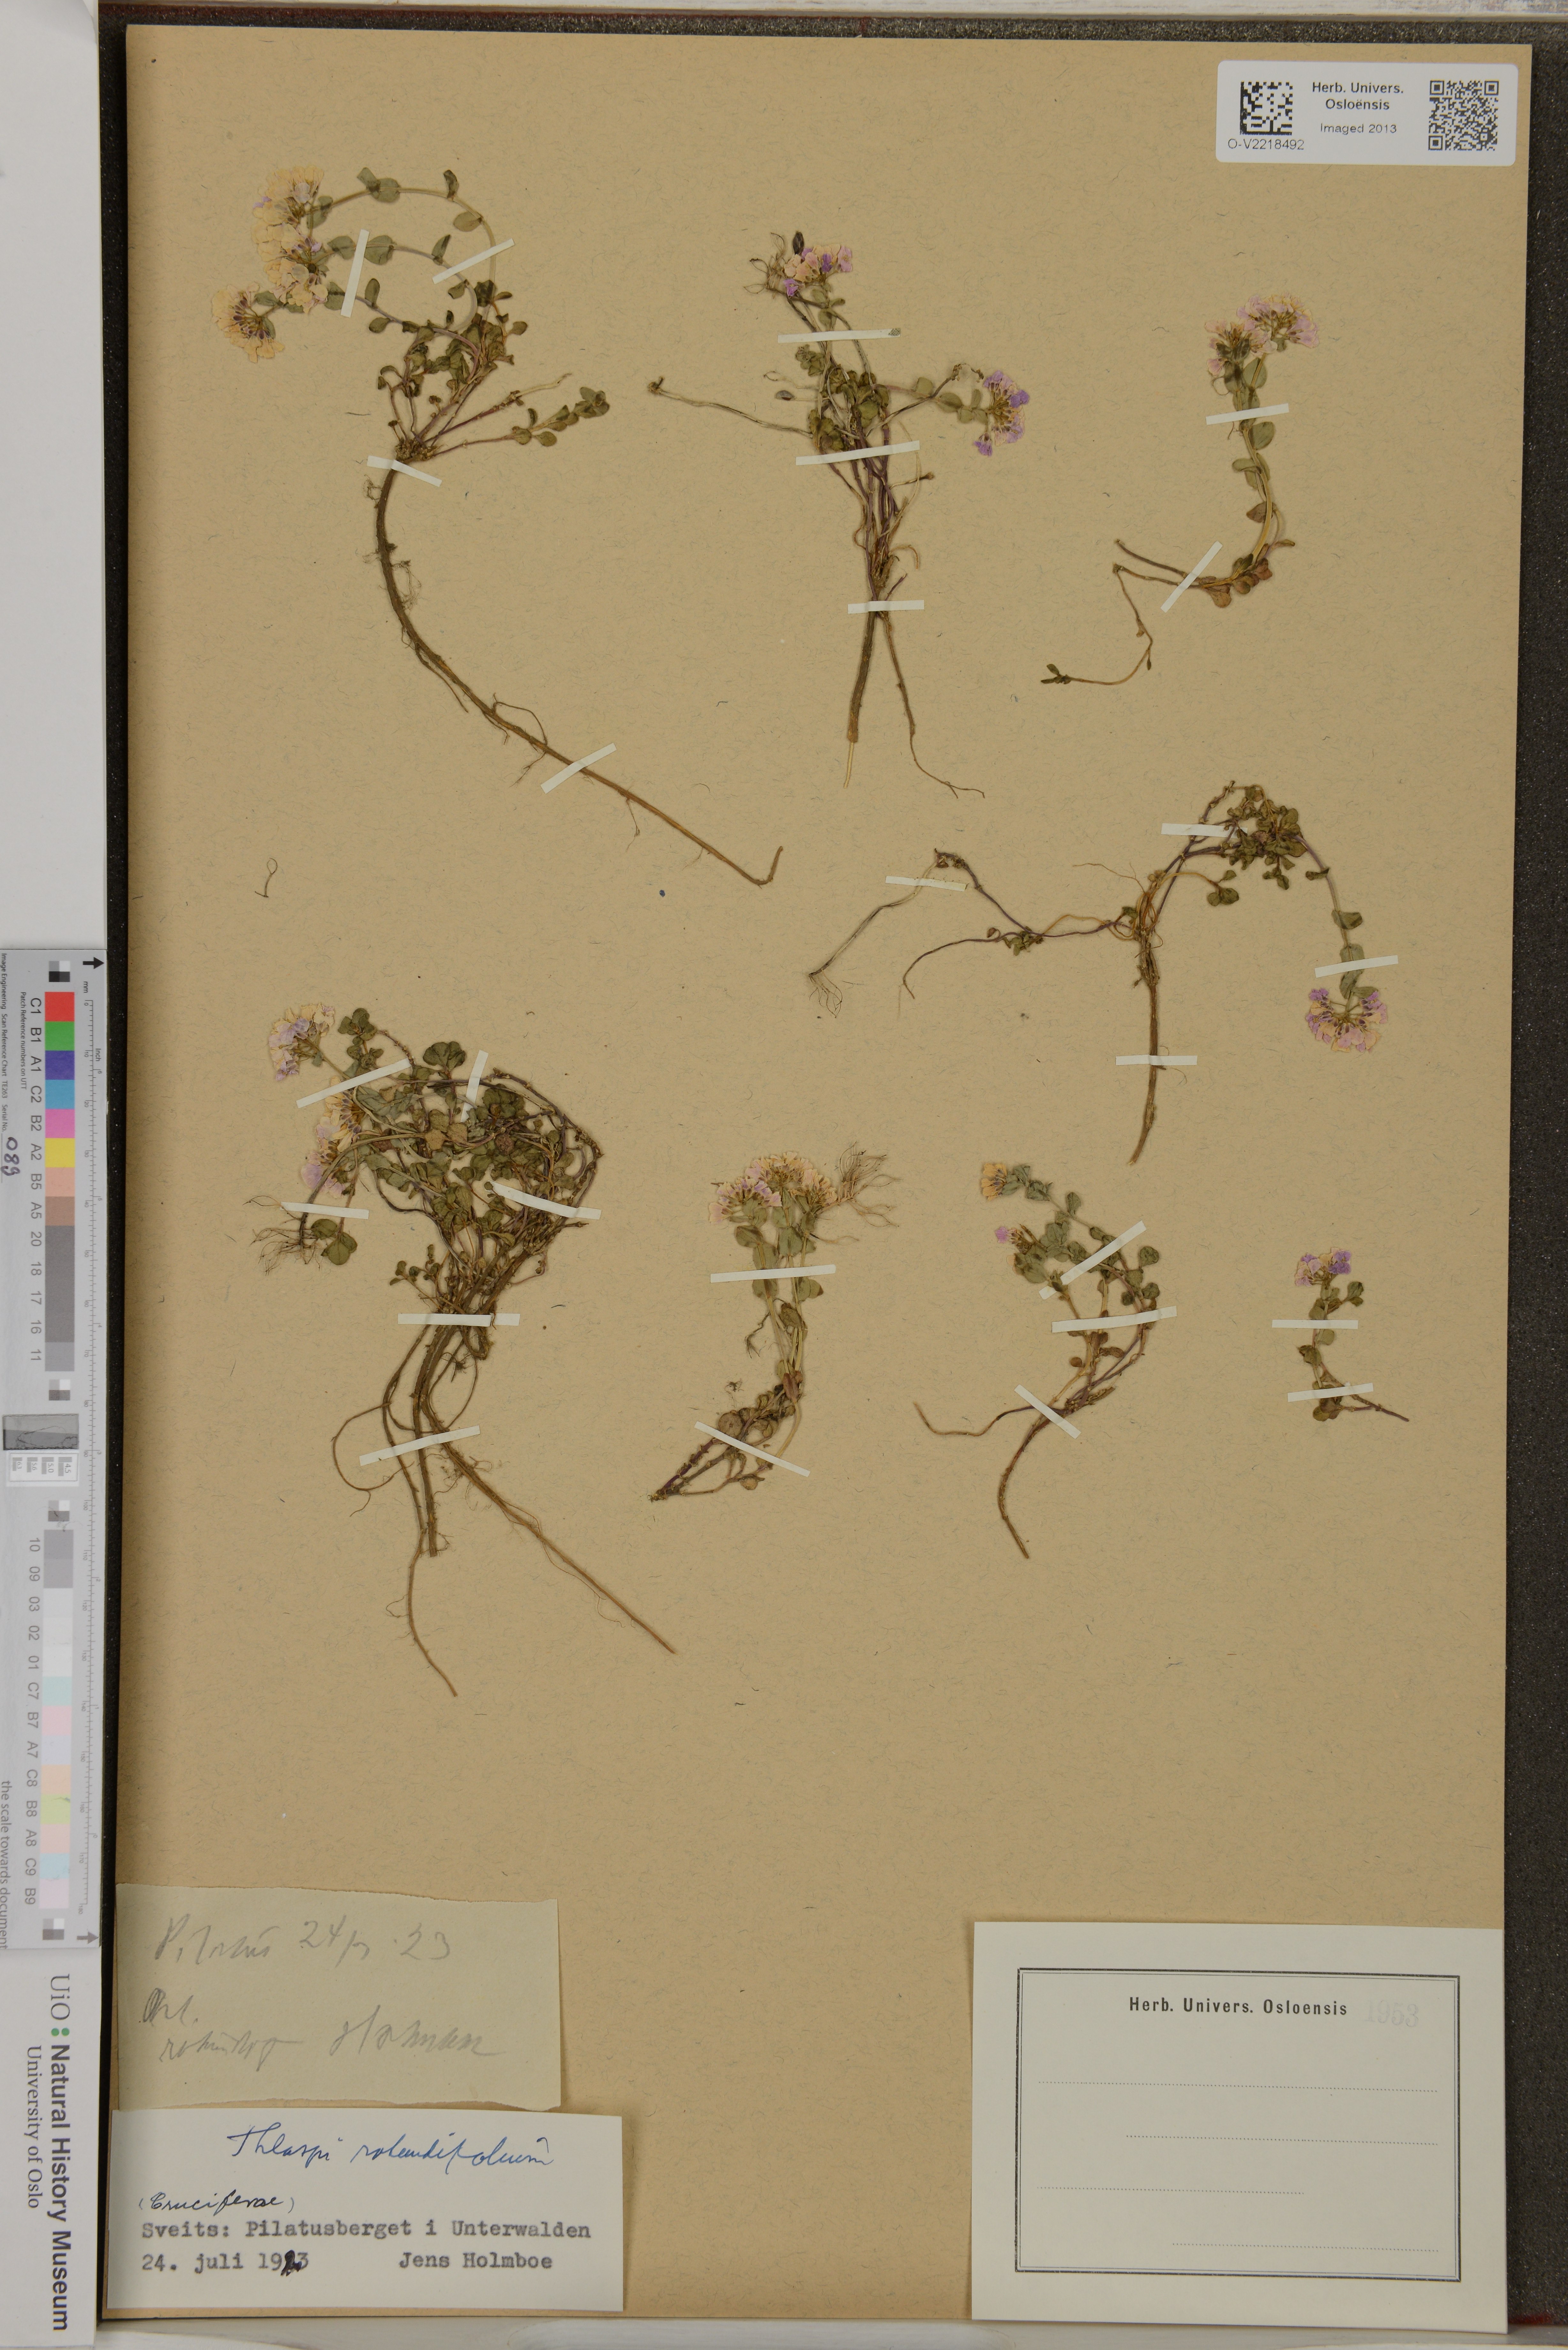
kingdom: Plantae
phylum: Tracheophyta
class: Magnoliopsida
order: Brassicales
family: Brassicaceae
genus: Noccaea
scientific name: Noccaea
